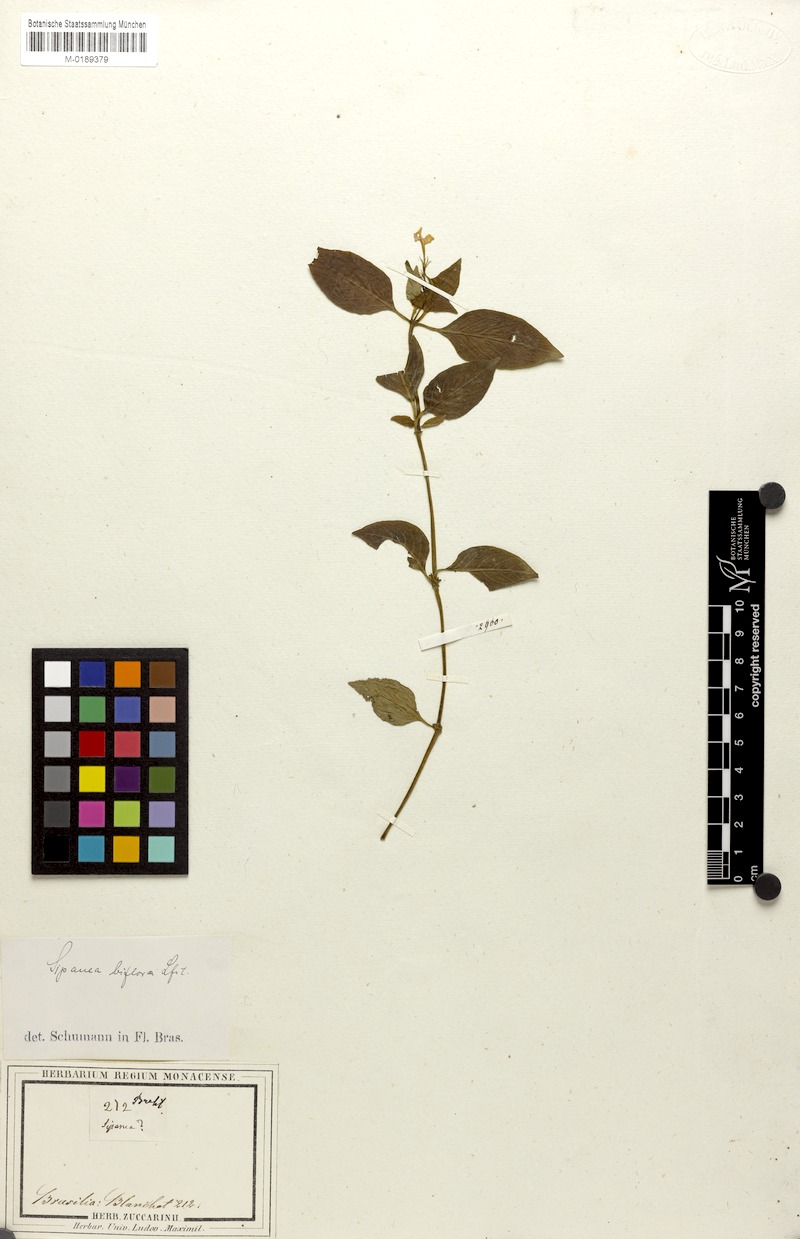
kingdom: Plantae
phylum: Tracheophyta
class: Magnoliopsida
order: Gentianales
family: Rubiaceae
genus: Sipanea
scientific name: Sipanea biflora
